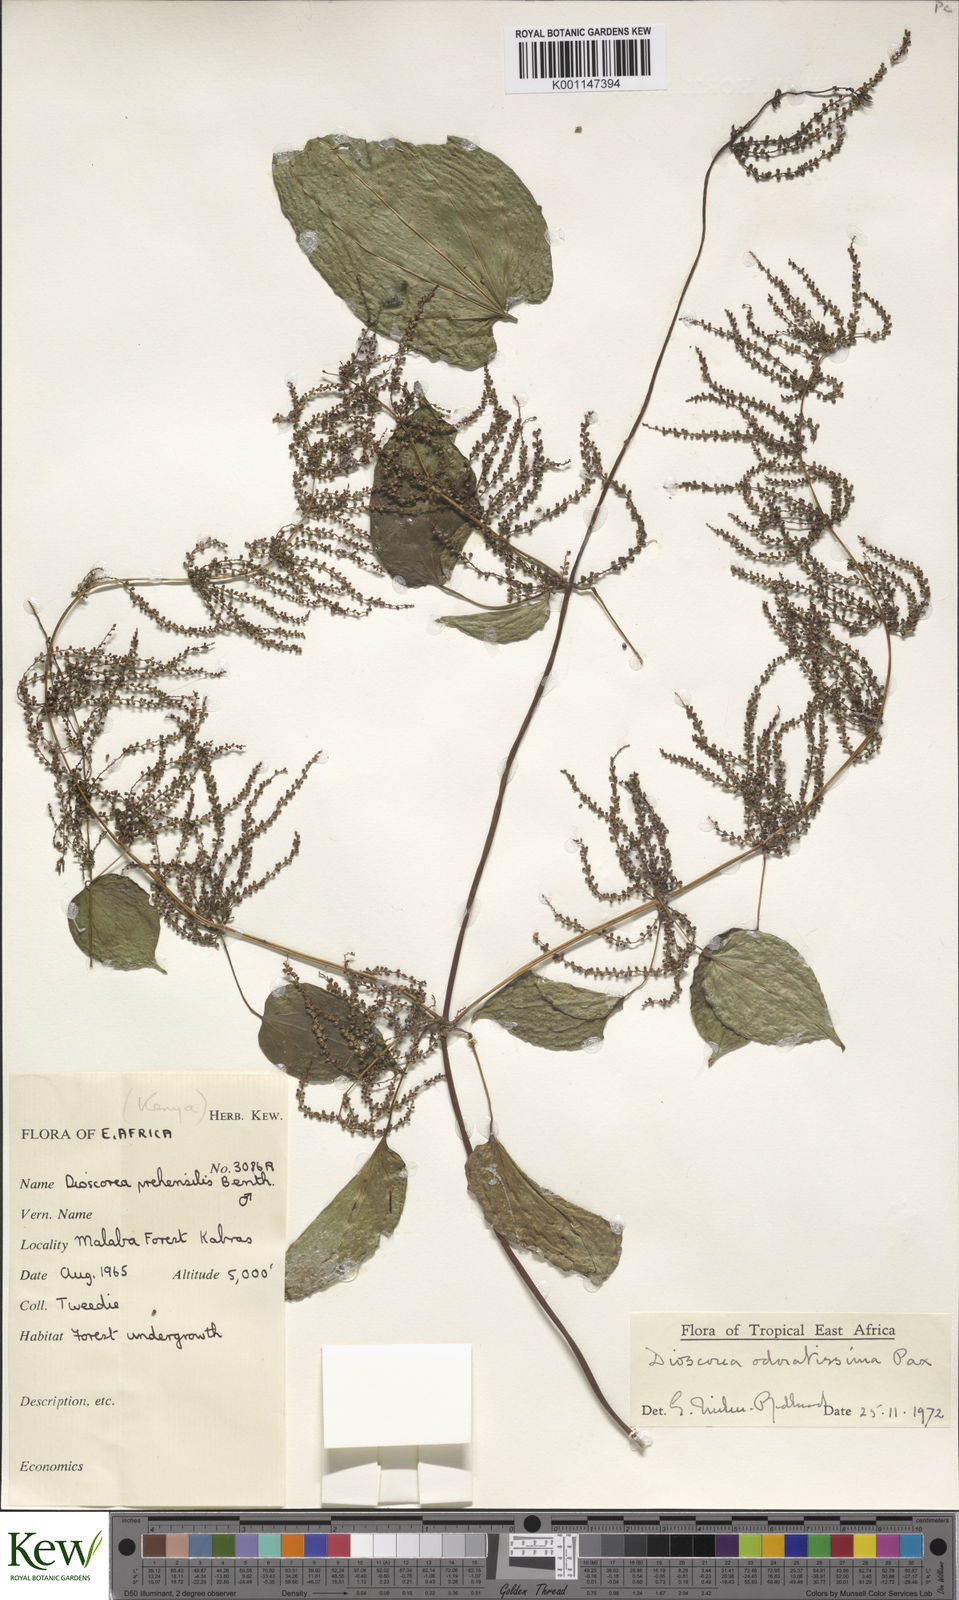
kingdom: Plantae
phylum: Tracheophyta
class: Liliopsida
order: Dioscoreales
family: Dioscoreaceae
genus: Dioscorea
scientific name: Dioscorea praehensilis
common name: Bush yam
